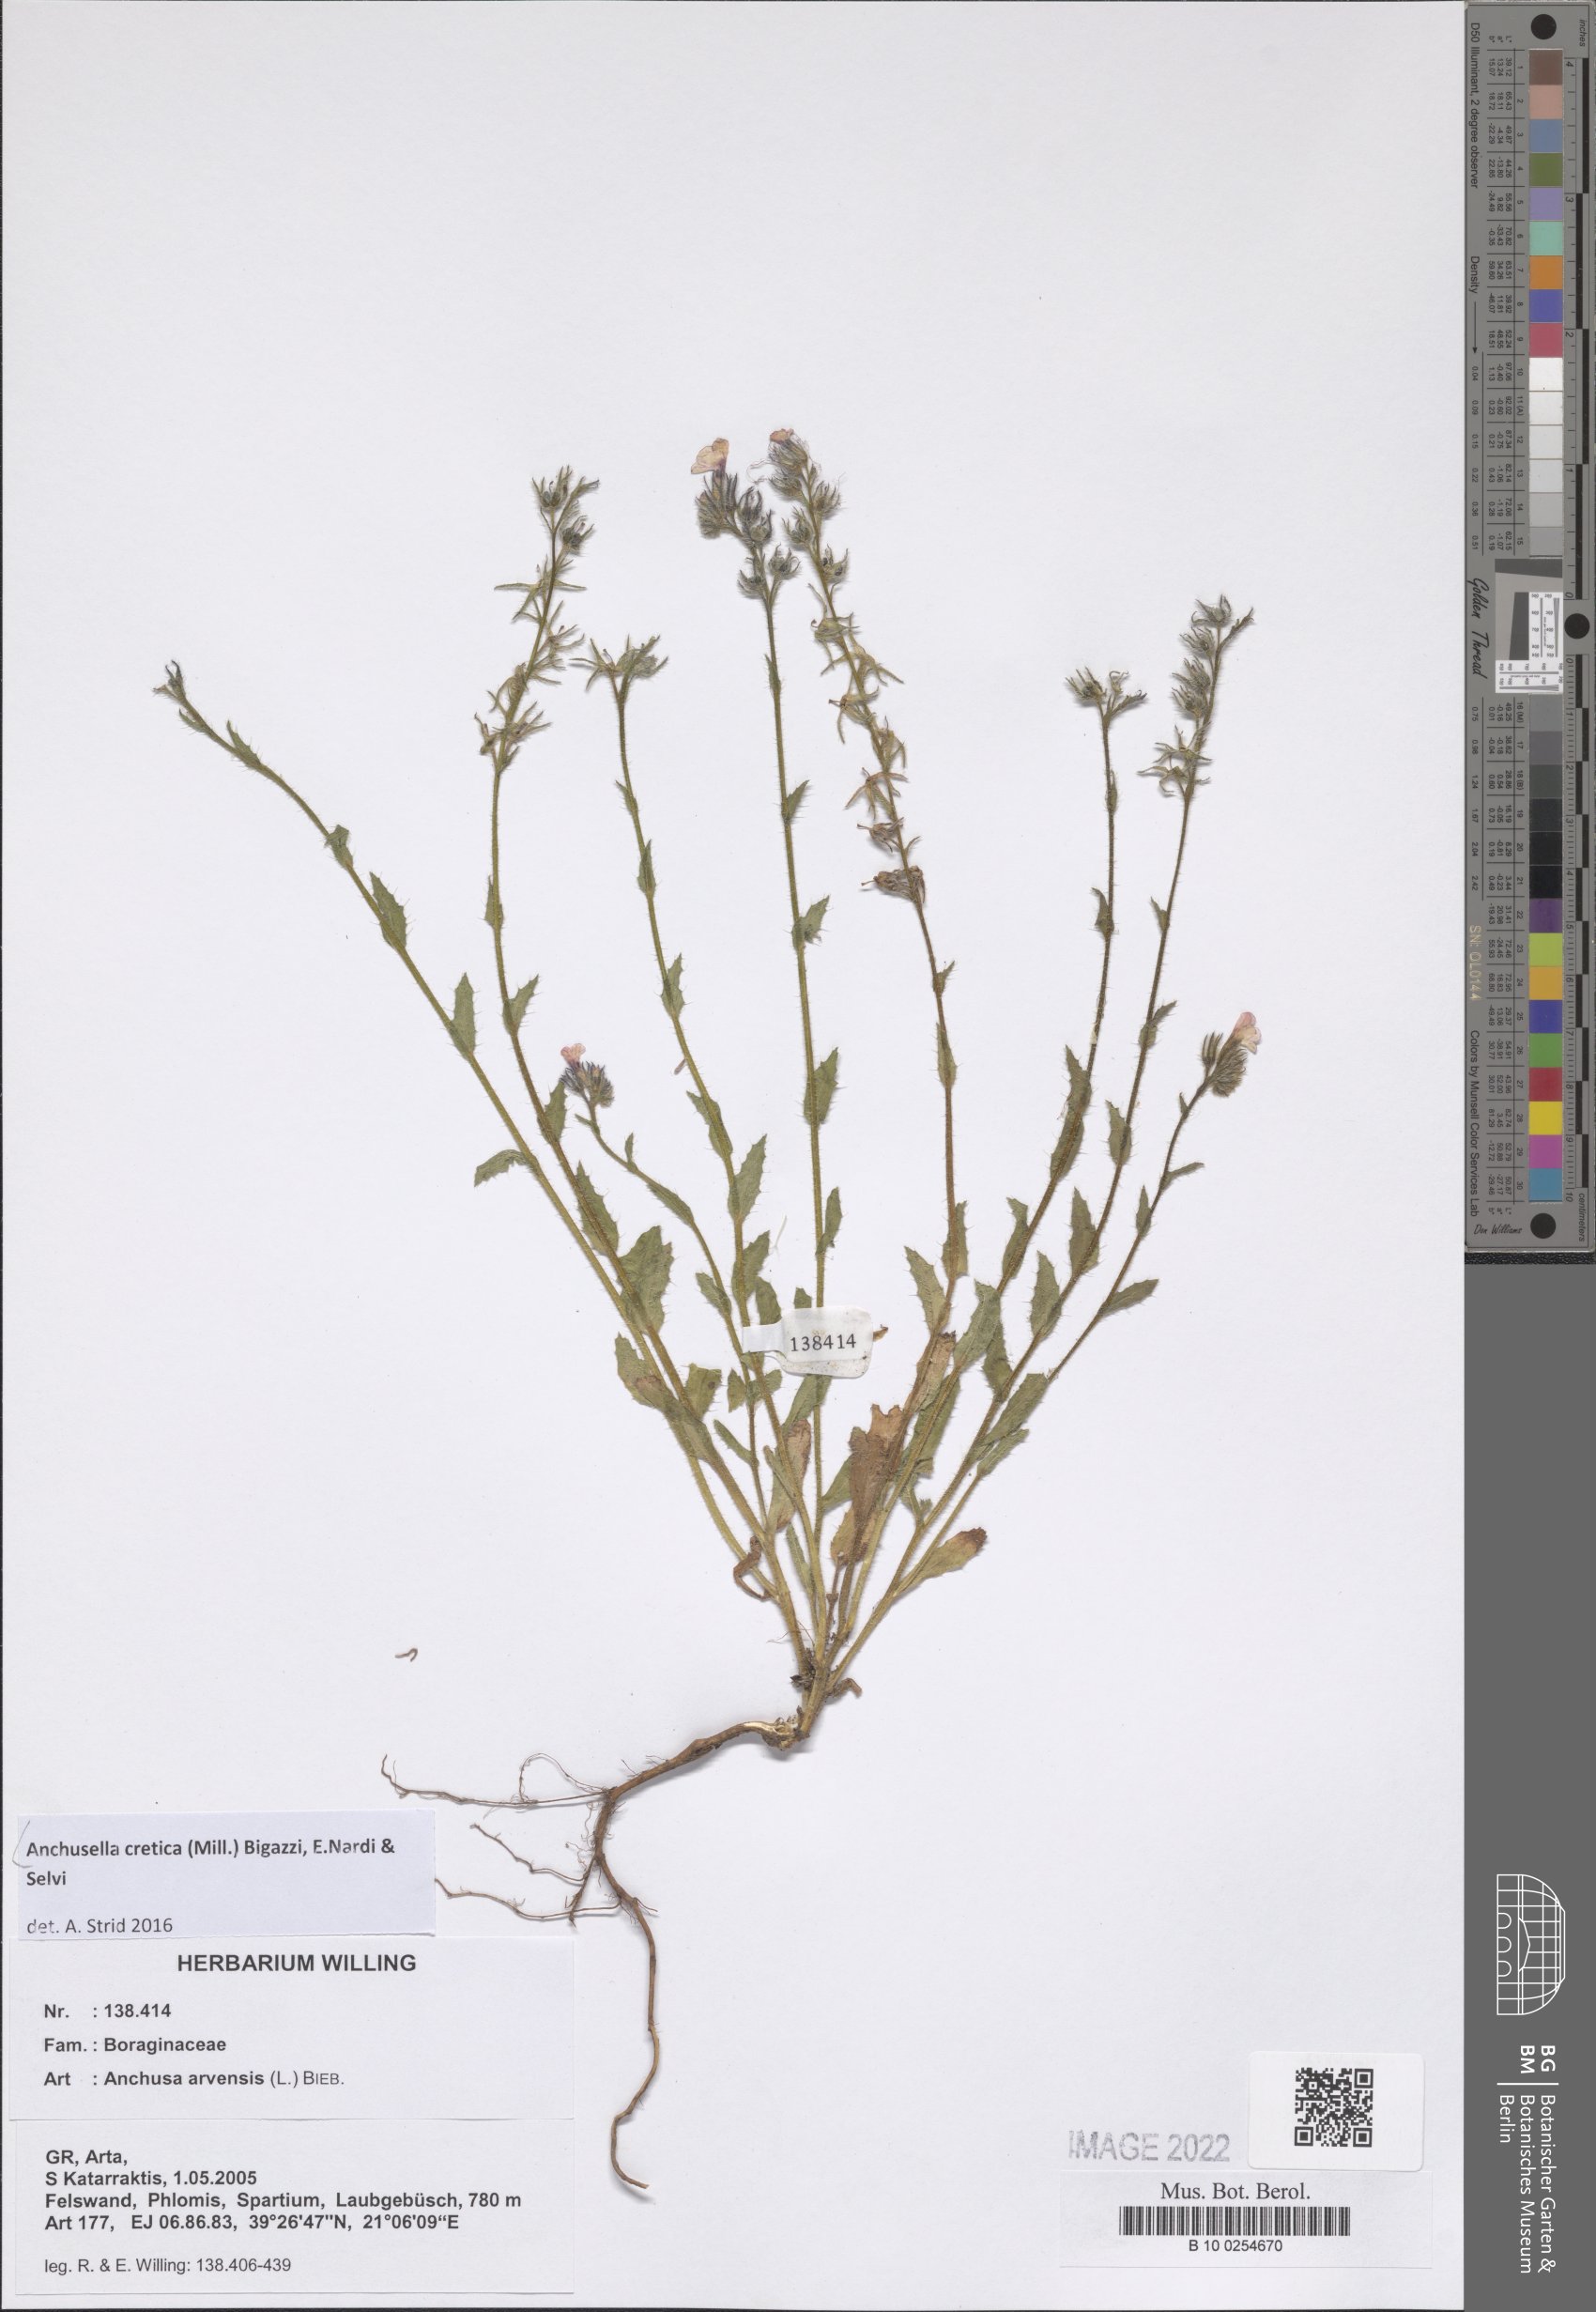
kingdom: Plantae
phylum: Tracheophyta
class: Magnoliopsida
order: Boraginales
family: Boraginaceae
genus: Anchusella
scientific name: Anchusella cretica
